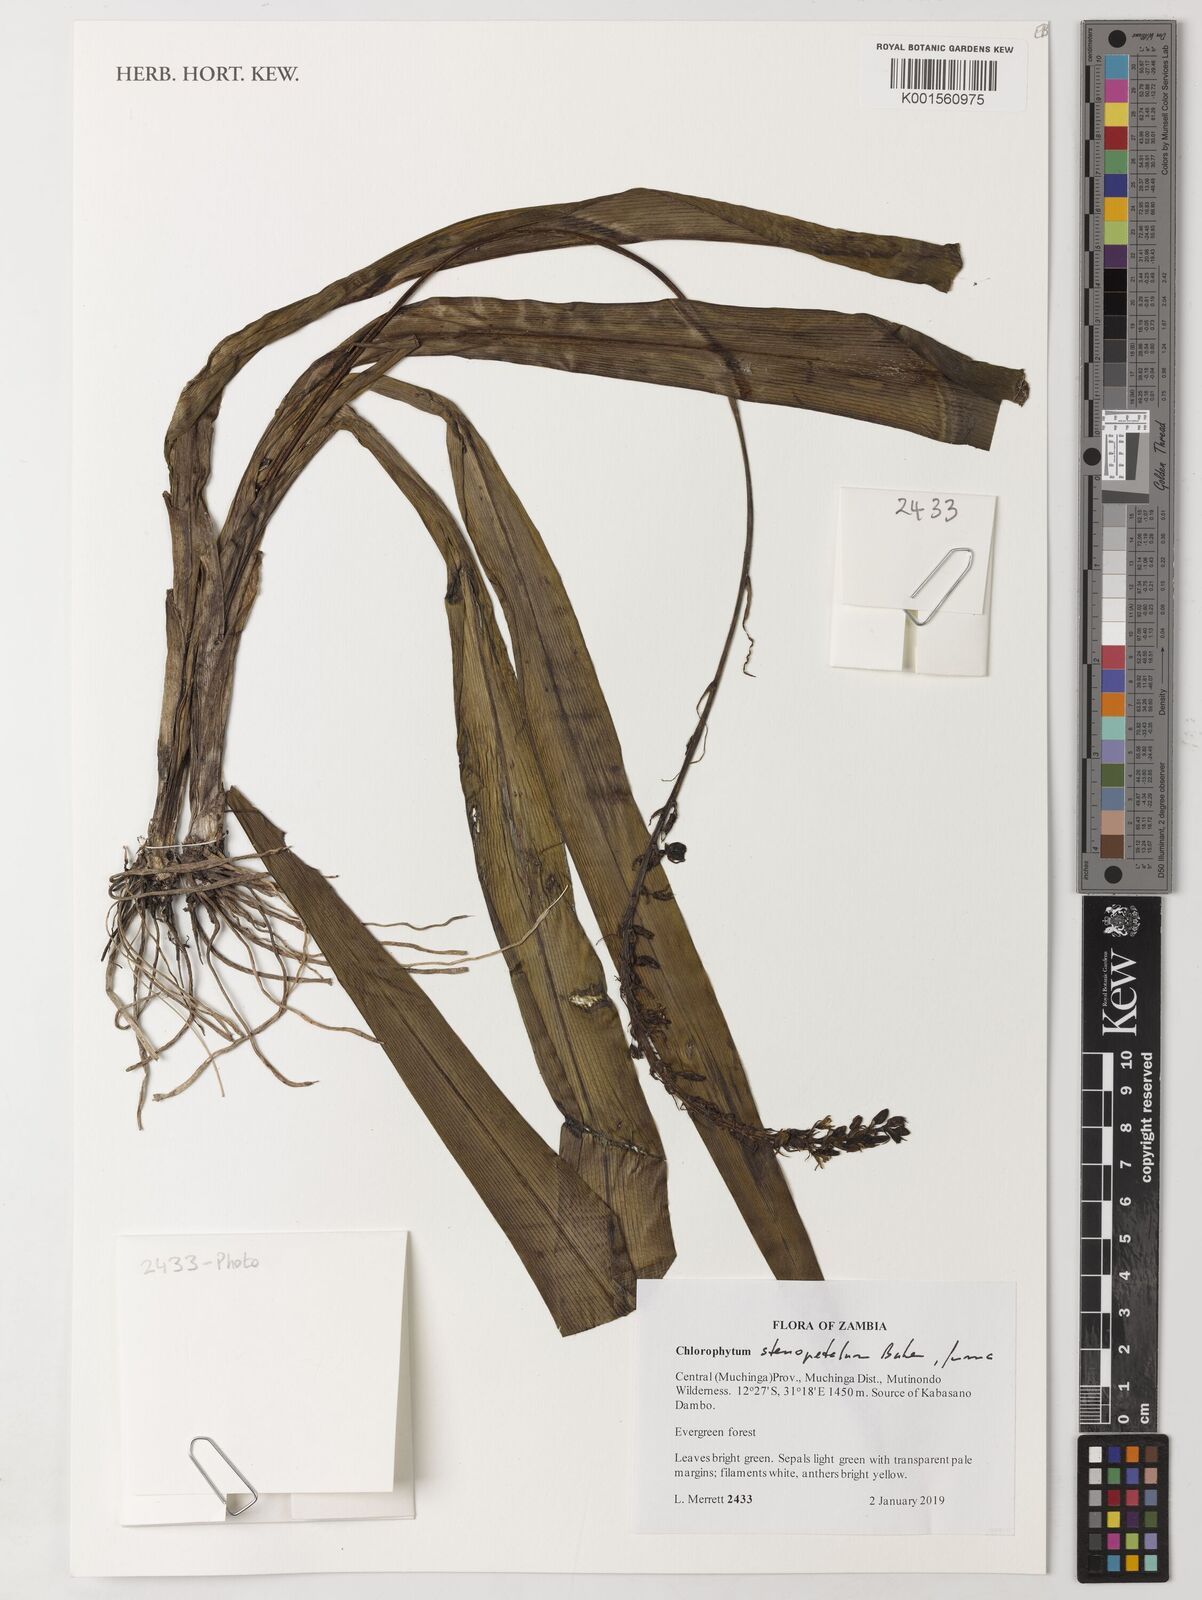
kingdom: Plantae
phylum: Tracheophyta
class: Liliopsida
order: Asparagales
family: Asparagaceae
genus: Chlorophytum
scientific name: Chlorophytum stenopetalum
